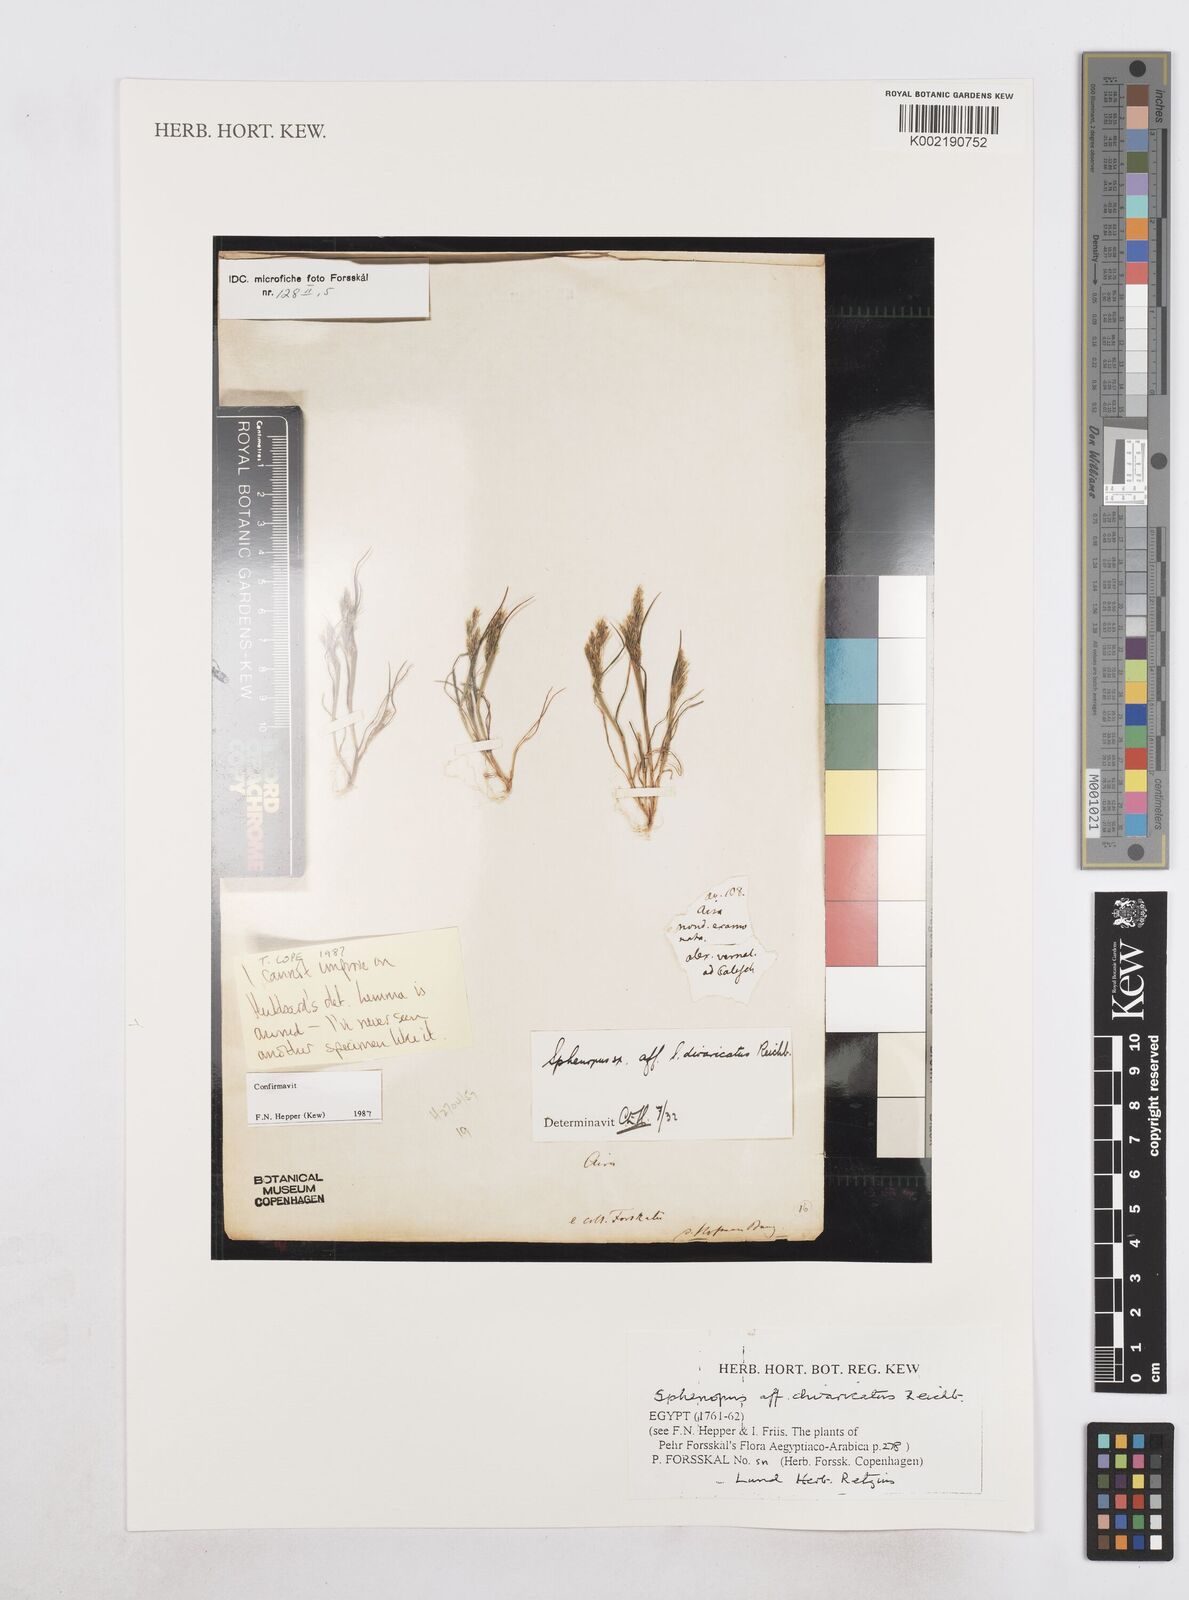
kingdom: Plantae
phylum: Tracheophyta
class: Liliopsida
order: Poales
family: Poaceae
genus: Sphenopus
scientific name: Sphenopus divaricatus
